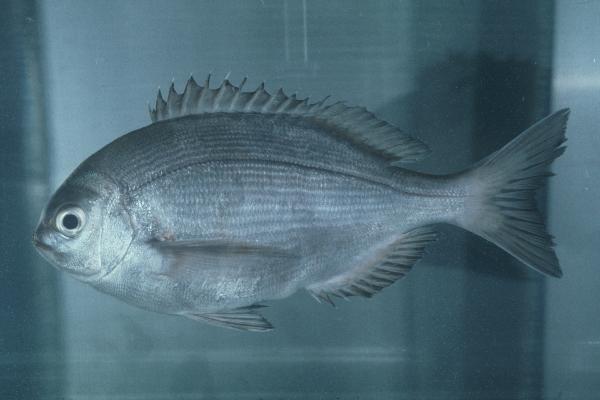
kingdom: Animalia
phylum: Chordata
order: Perciformes
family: Sparidae
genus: Pachymetopon
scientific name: Pachymetopon aeneum
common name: Blue hottentot
